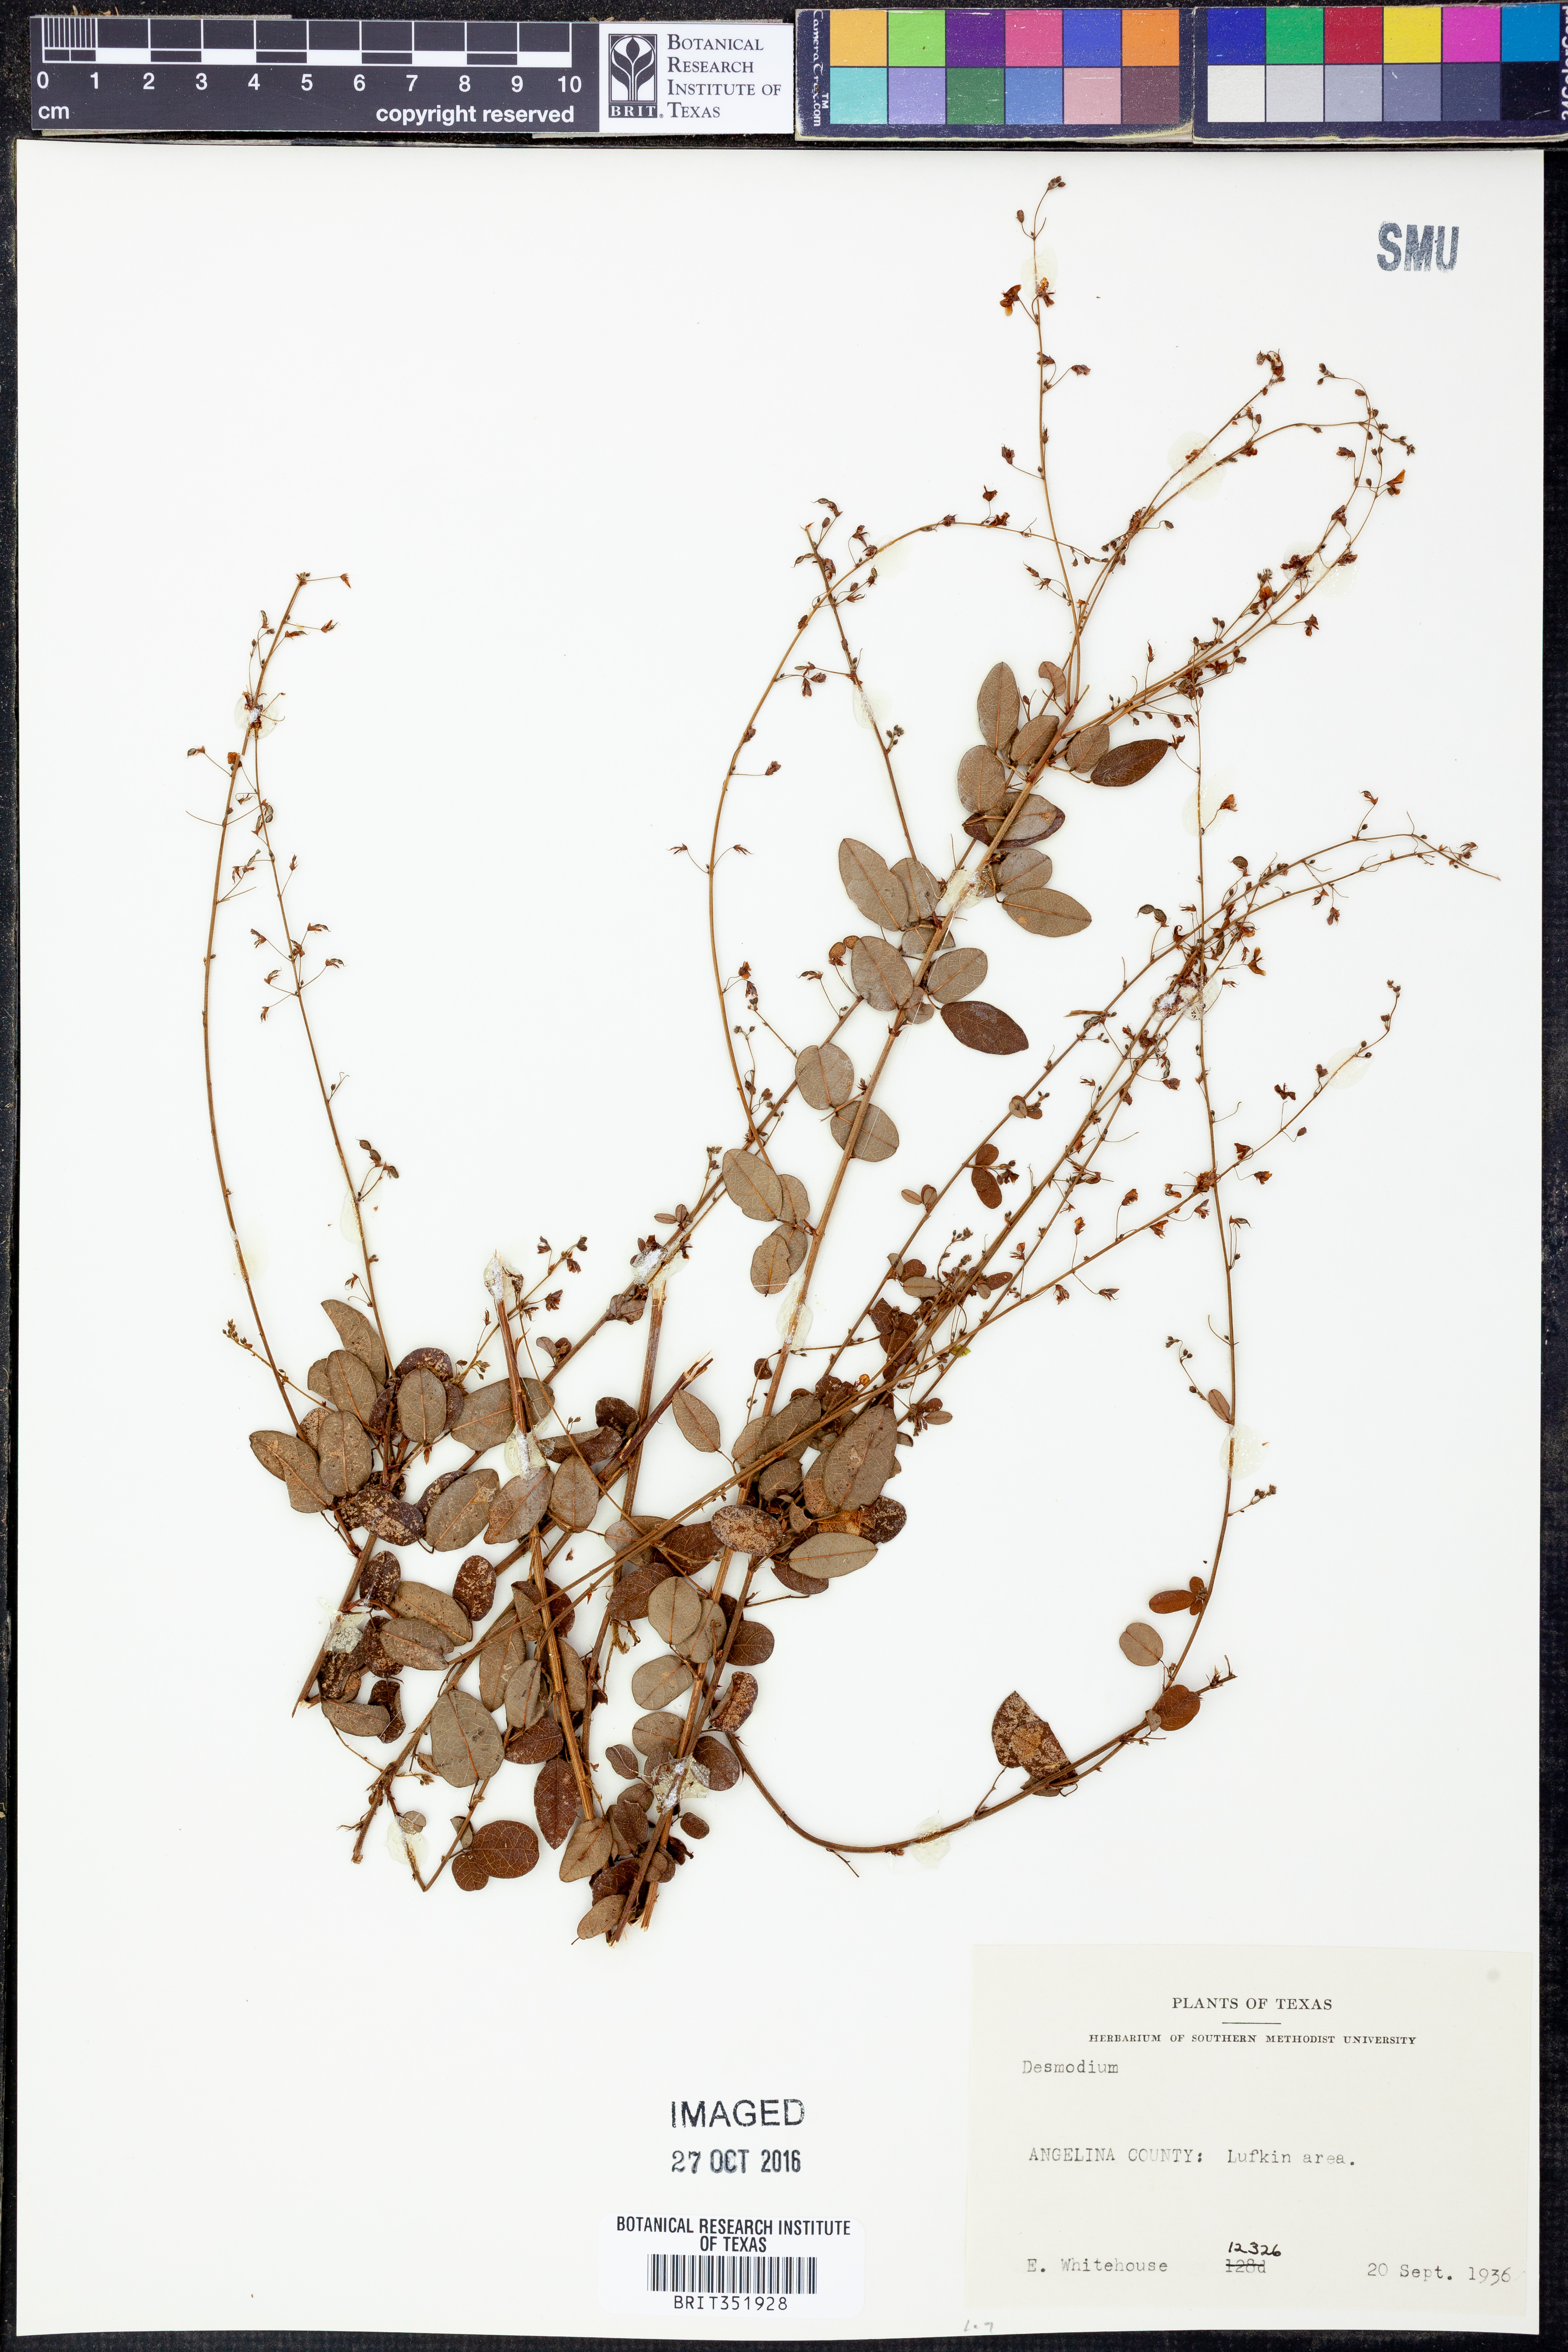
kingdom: Plantae
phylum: Tracheophyta
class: Magnoliopsida
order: Fabales
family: Fabaceae
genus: Desmodium
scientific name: Desmodium
